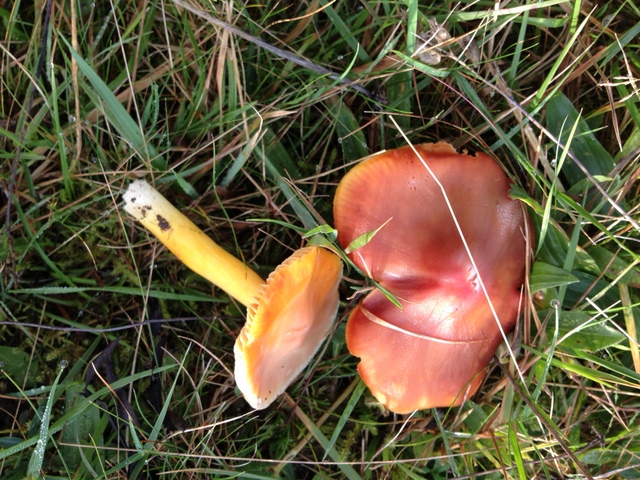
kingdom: Fungi
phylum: Basidiomycota
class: Agaricomycetes
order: Agaricales
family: Hygrophoraceae
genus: Hygrocybe
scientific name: Hygrocybe punicea
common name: skarlagen-vokshat
